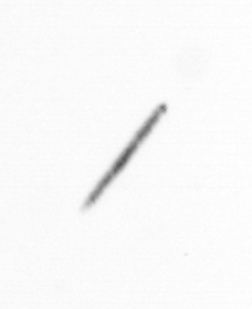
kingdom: Chromista
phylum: Ochrophyta
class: Bacillariophyceae
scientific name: Bacillariophyceae
